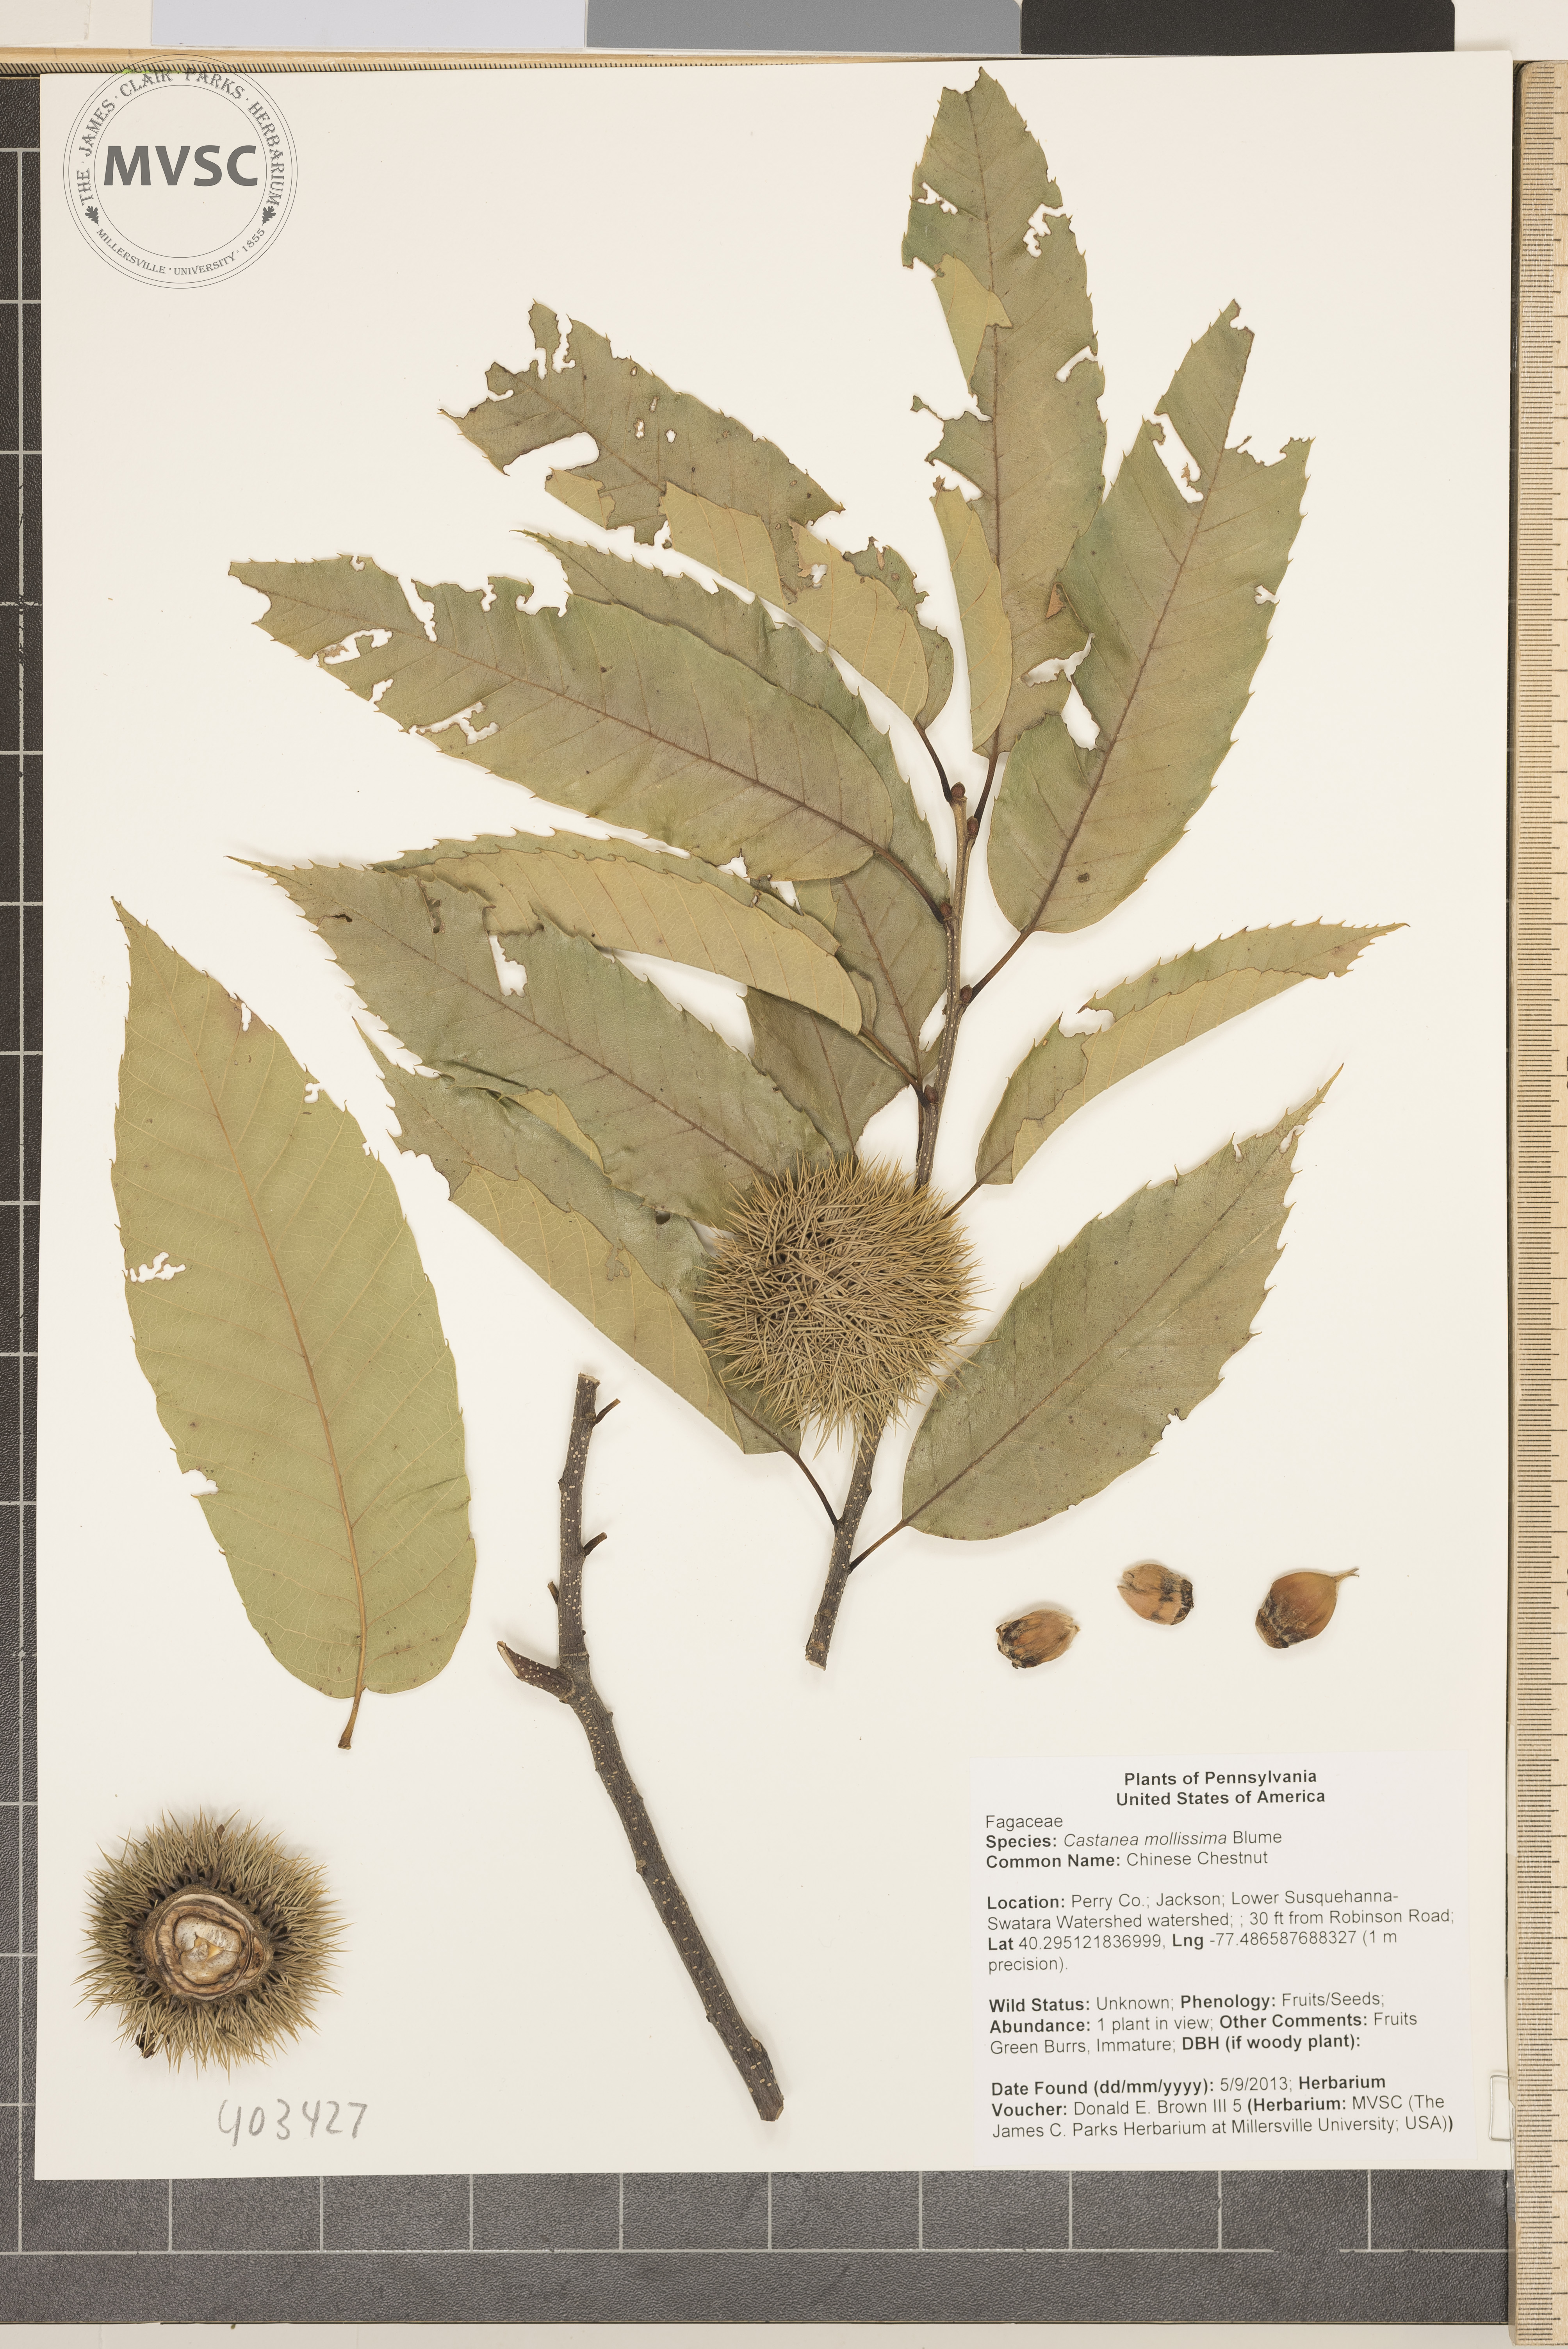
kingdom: Plantae
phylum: Tracheophyta
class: Magnoliopsida
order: Fagales
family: Fagaceae
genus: Castanea
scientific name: Castanea mollissima
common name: Chinese Chestnut
